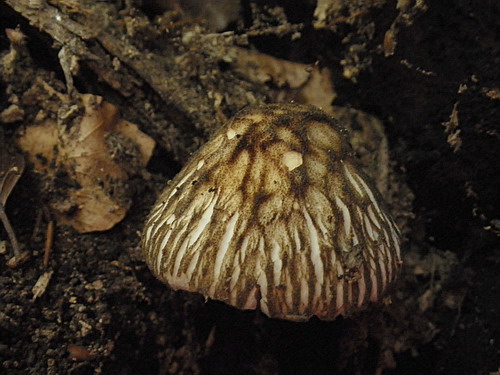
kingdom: Fungi
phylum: Basidiomycota
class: Agaricomycetes
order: Agaricales
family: Pluteaceae
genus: Pluteus
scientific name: Pluteus umbrosus
